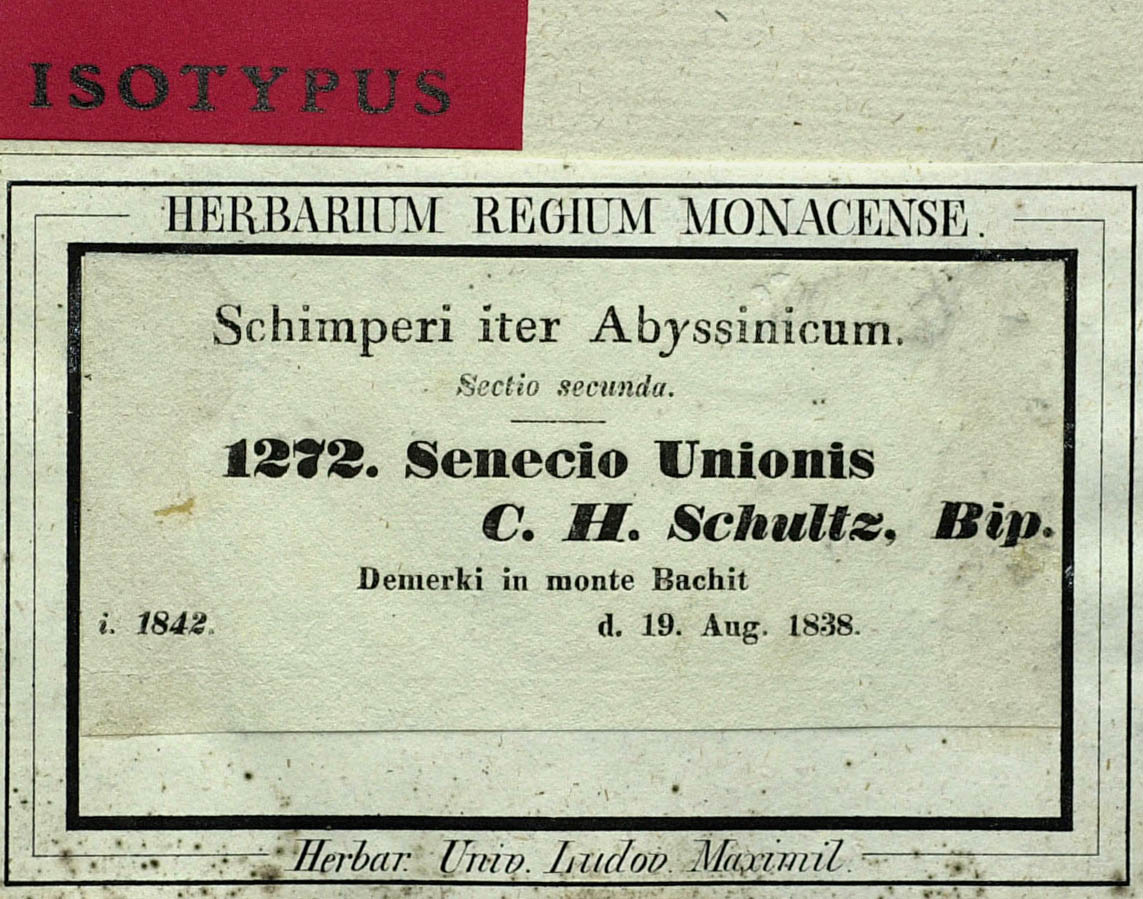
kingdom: Plantae
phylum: Tracheophyta
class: Magnoliopsida
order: Asterales
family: Asteraceae
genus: Senecio
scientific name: Senecio unionis
